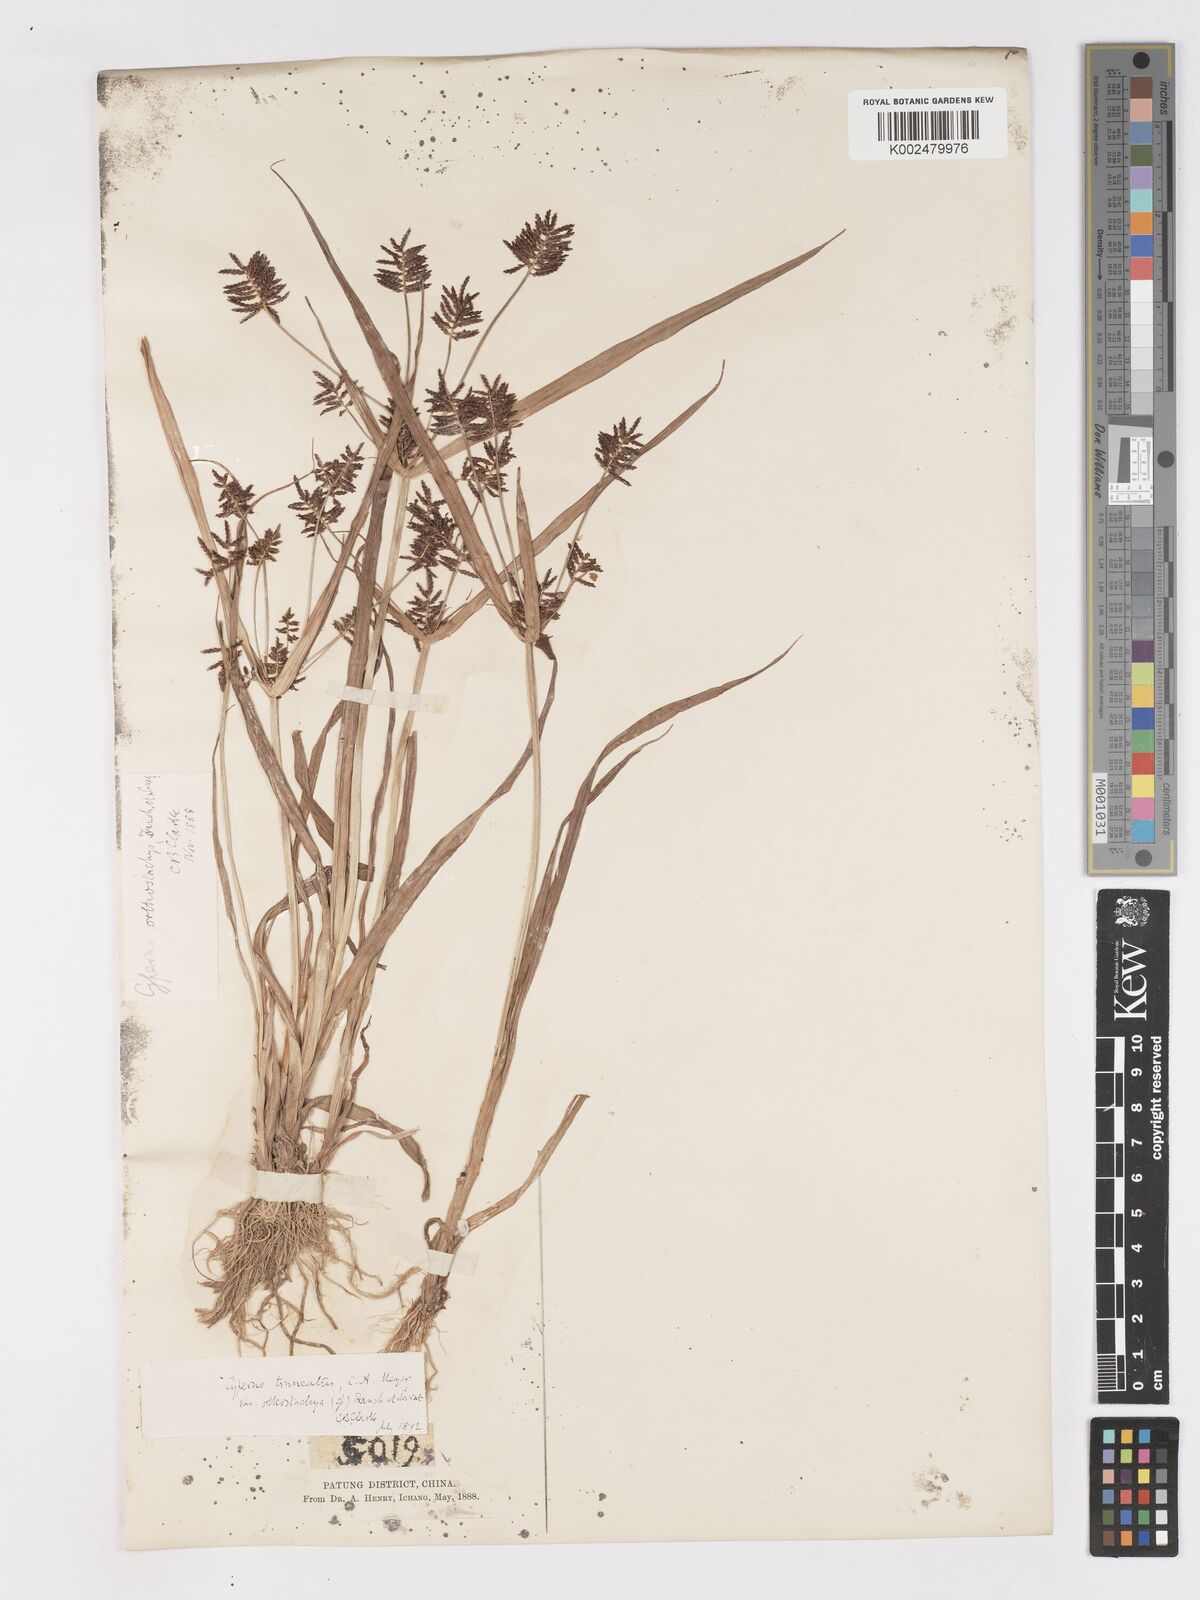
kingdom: Plantae
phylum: Tracheophyta
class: Liliopsida
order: Poales
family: Cyperaceae
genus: Cyperus
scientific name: Cyperus orthostachyus
